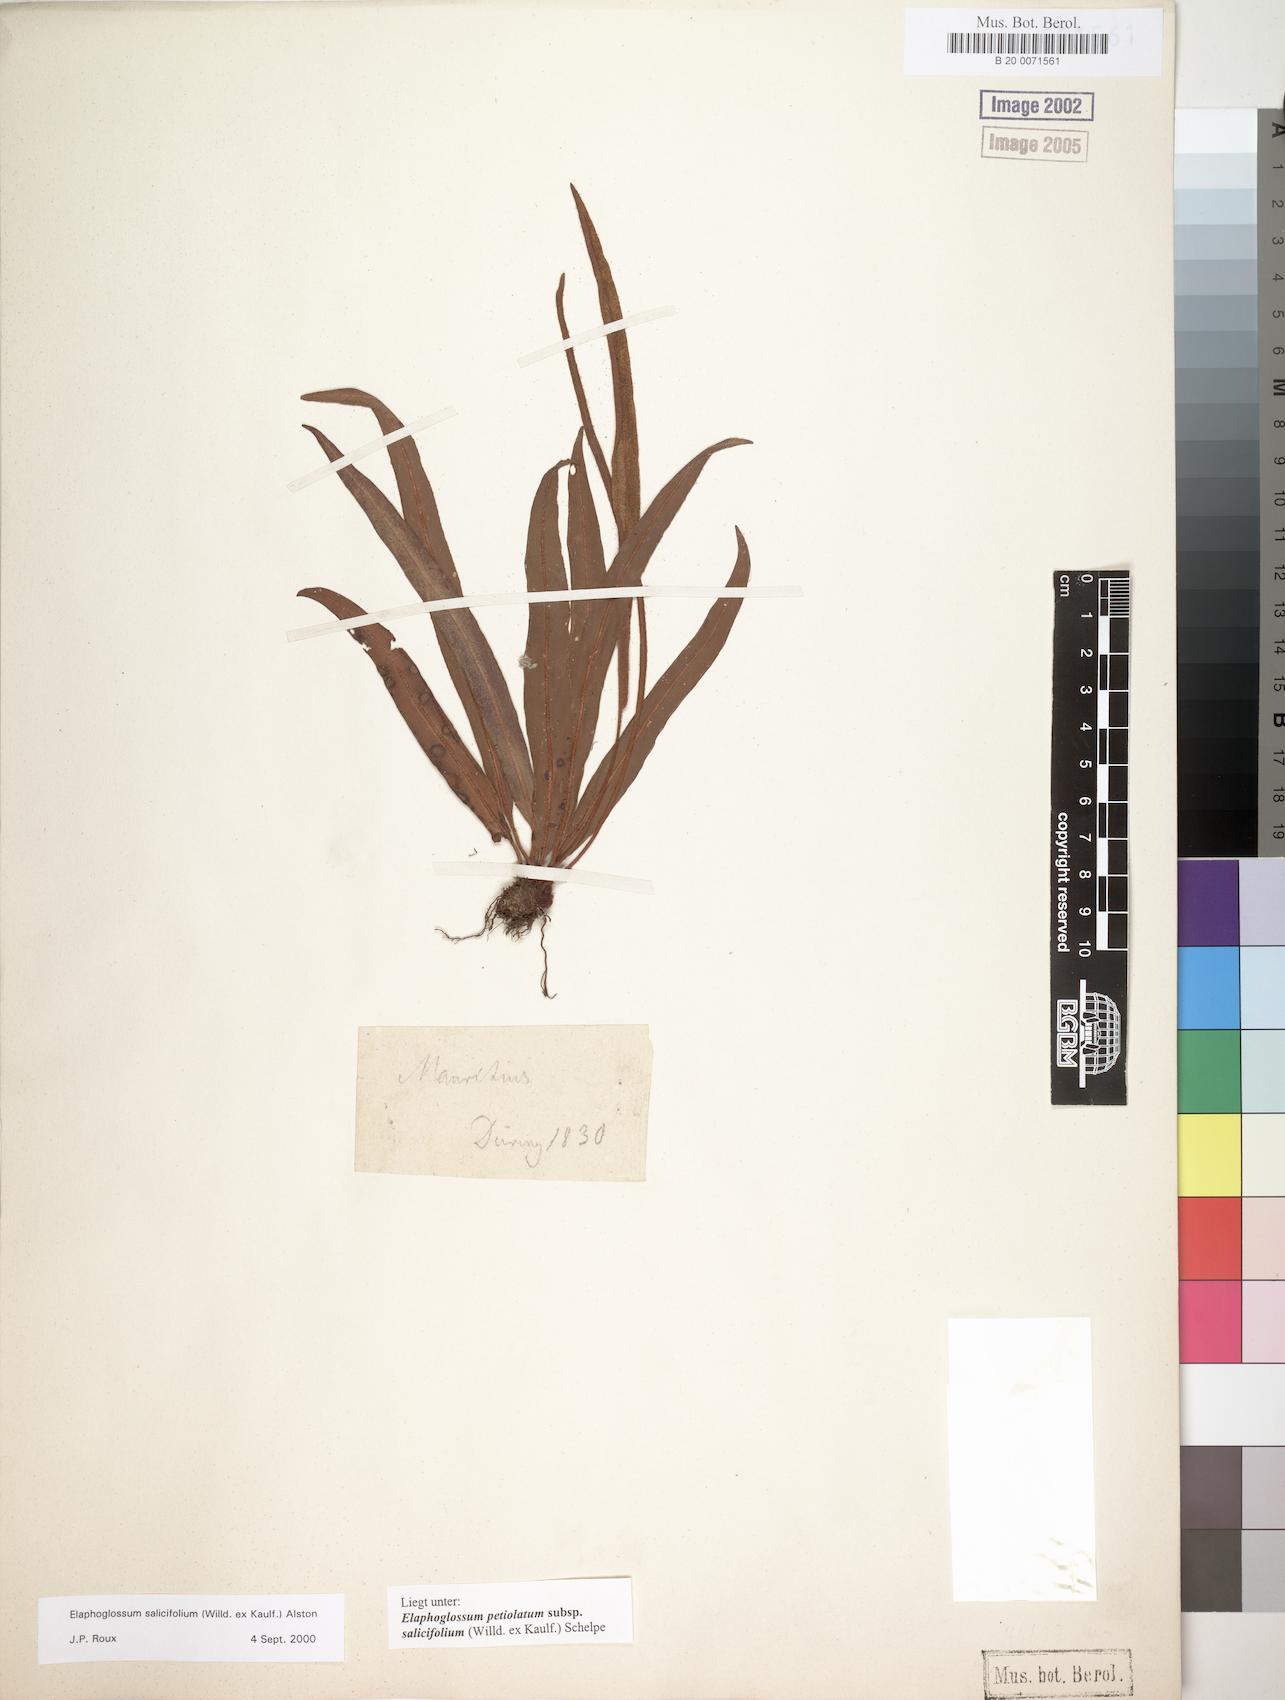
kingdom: Plantae
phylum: Tracheophyta
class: Polypodiopsida
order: Polypodiales
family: Dryopteridaceae
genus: Elaphoglossum
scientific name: Elaphoglossum lancifolium
